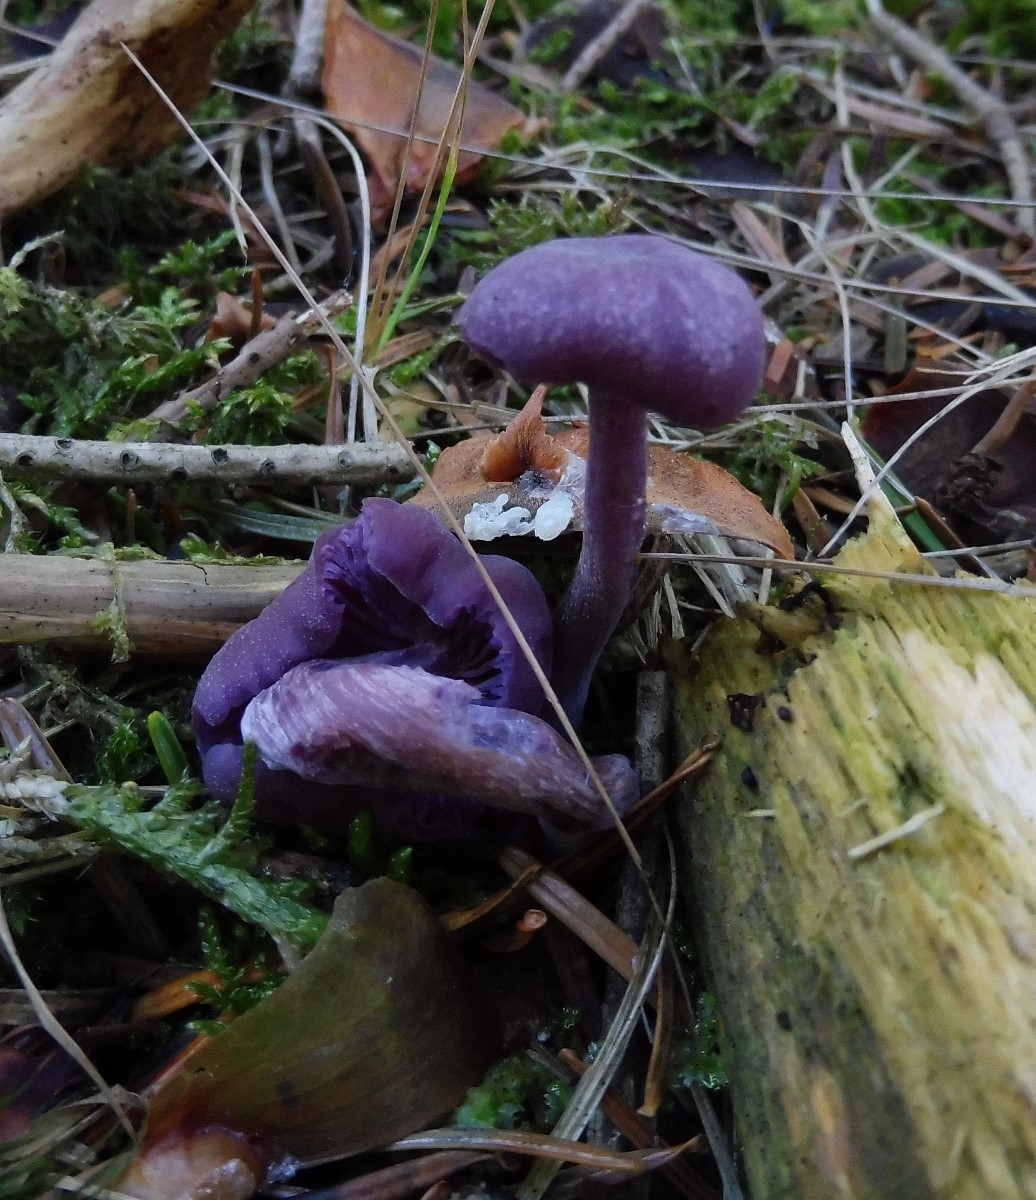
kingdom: Fungi
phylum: Basidiomycota
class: Agaricomycetes
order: Agaricales
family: Hydnangiaceae
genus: Laccaria
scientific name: Laccaria amethystina
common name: violet ametysthat
